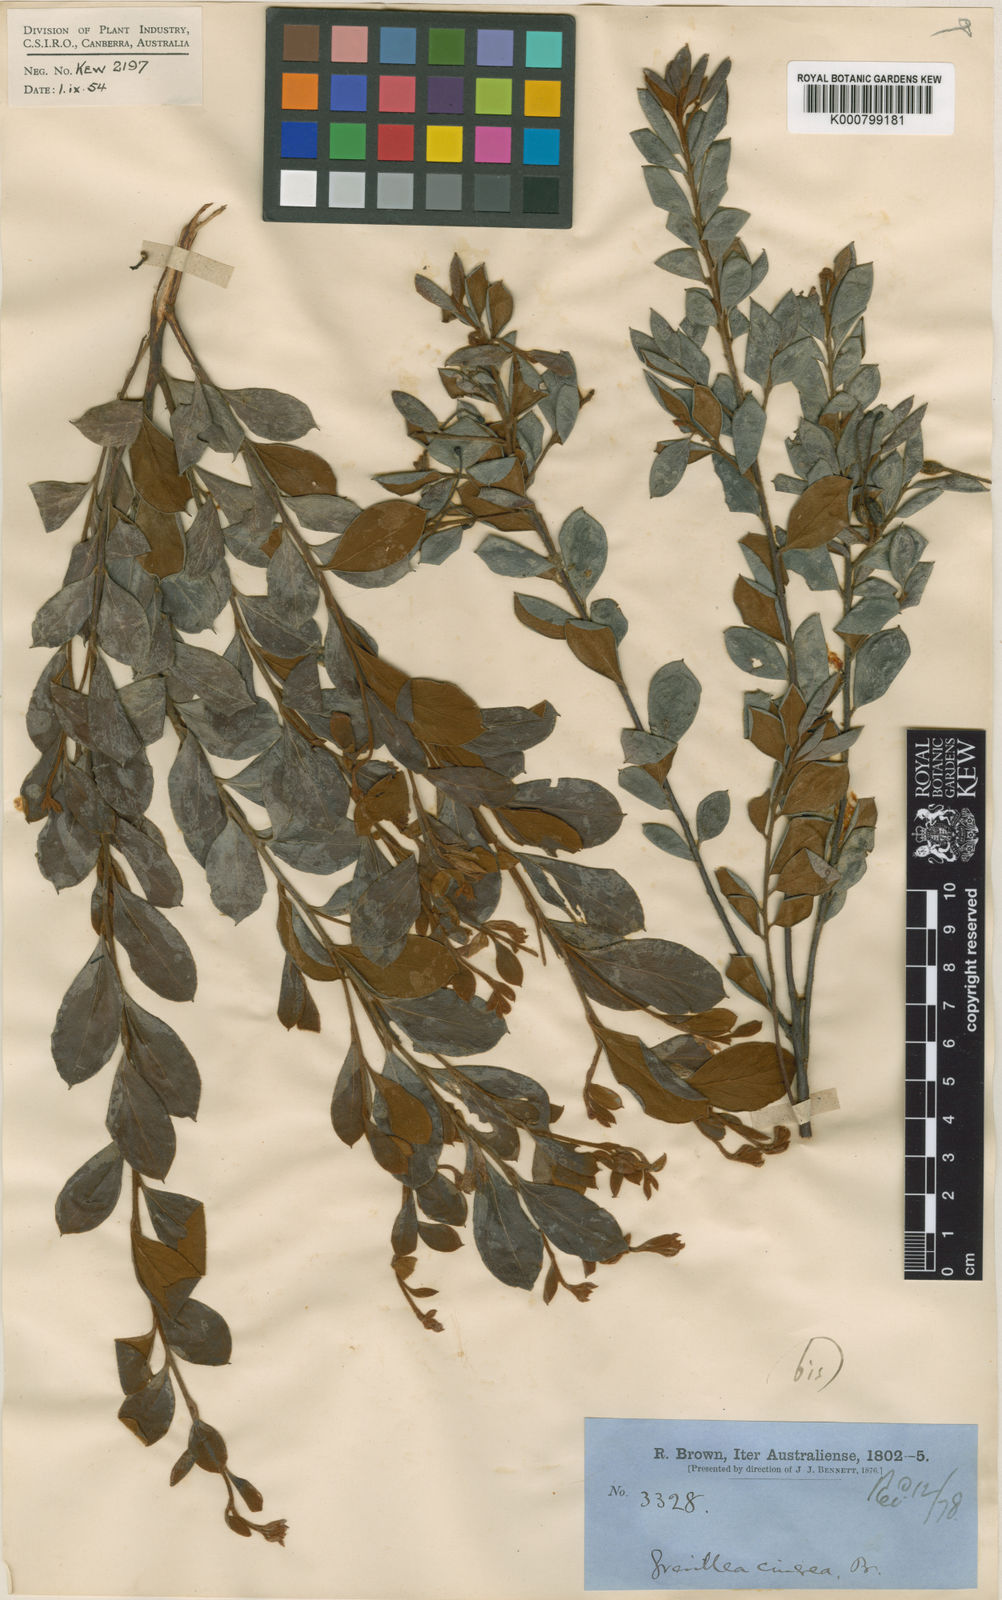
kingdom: Plantae
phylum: Tracheophyta
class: Magnoliopsida
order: Proteales
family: Proteaceae
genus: Grevillea
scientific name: Grevillea mucronulata
